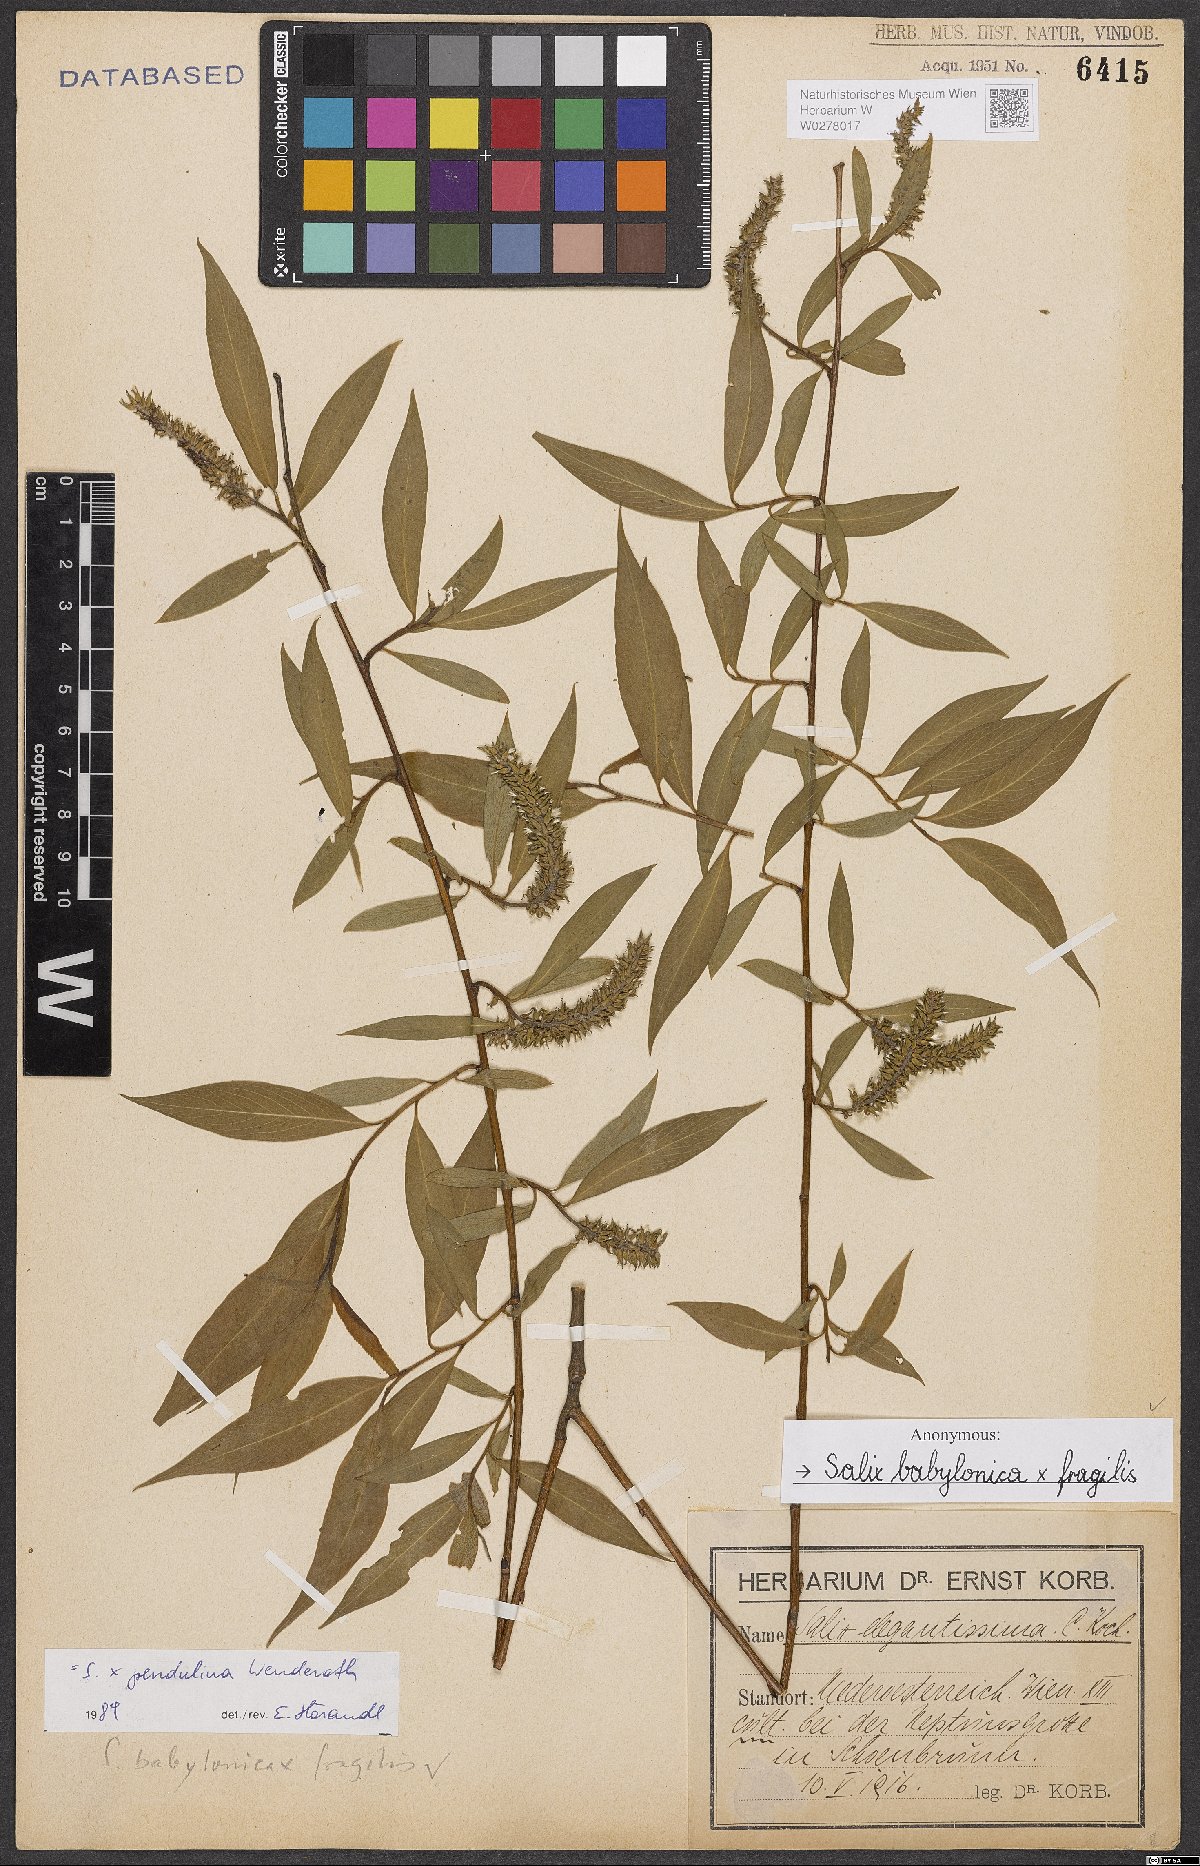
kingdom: Plantae
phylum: Tracheophyta
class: Magnoliopsida
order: Malpighiales
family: Salicaceae
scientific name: Salicaceae
